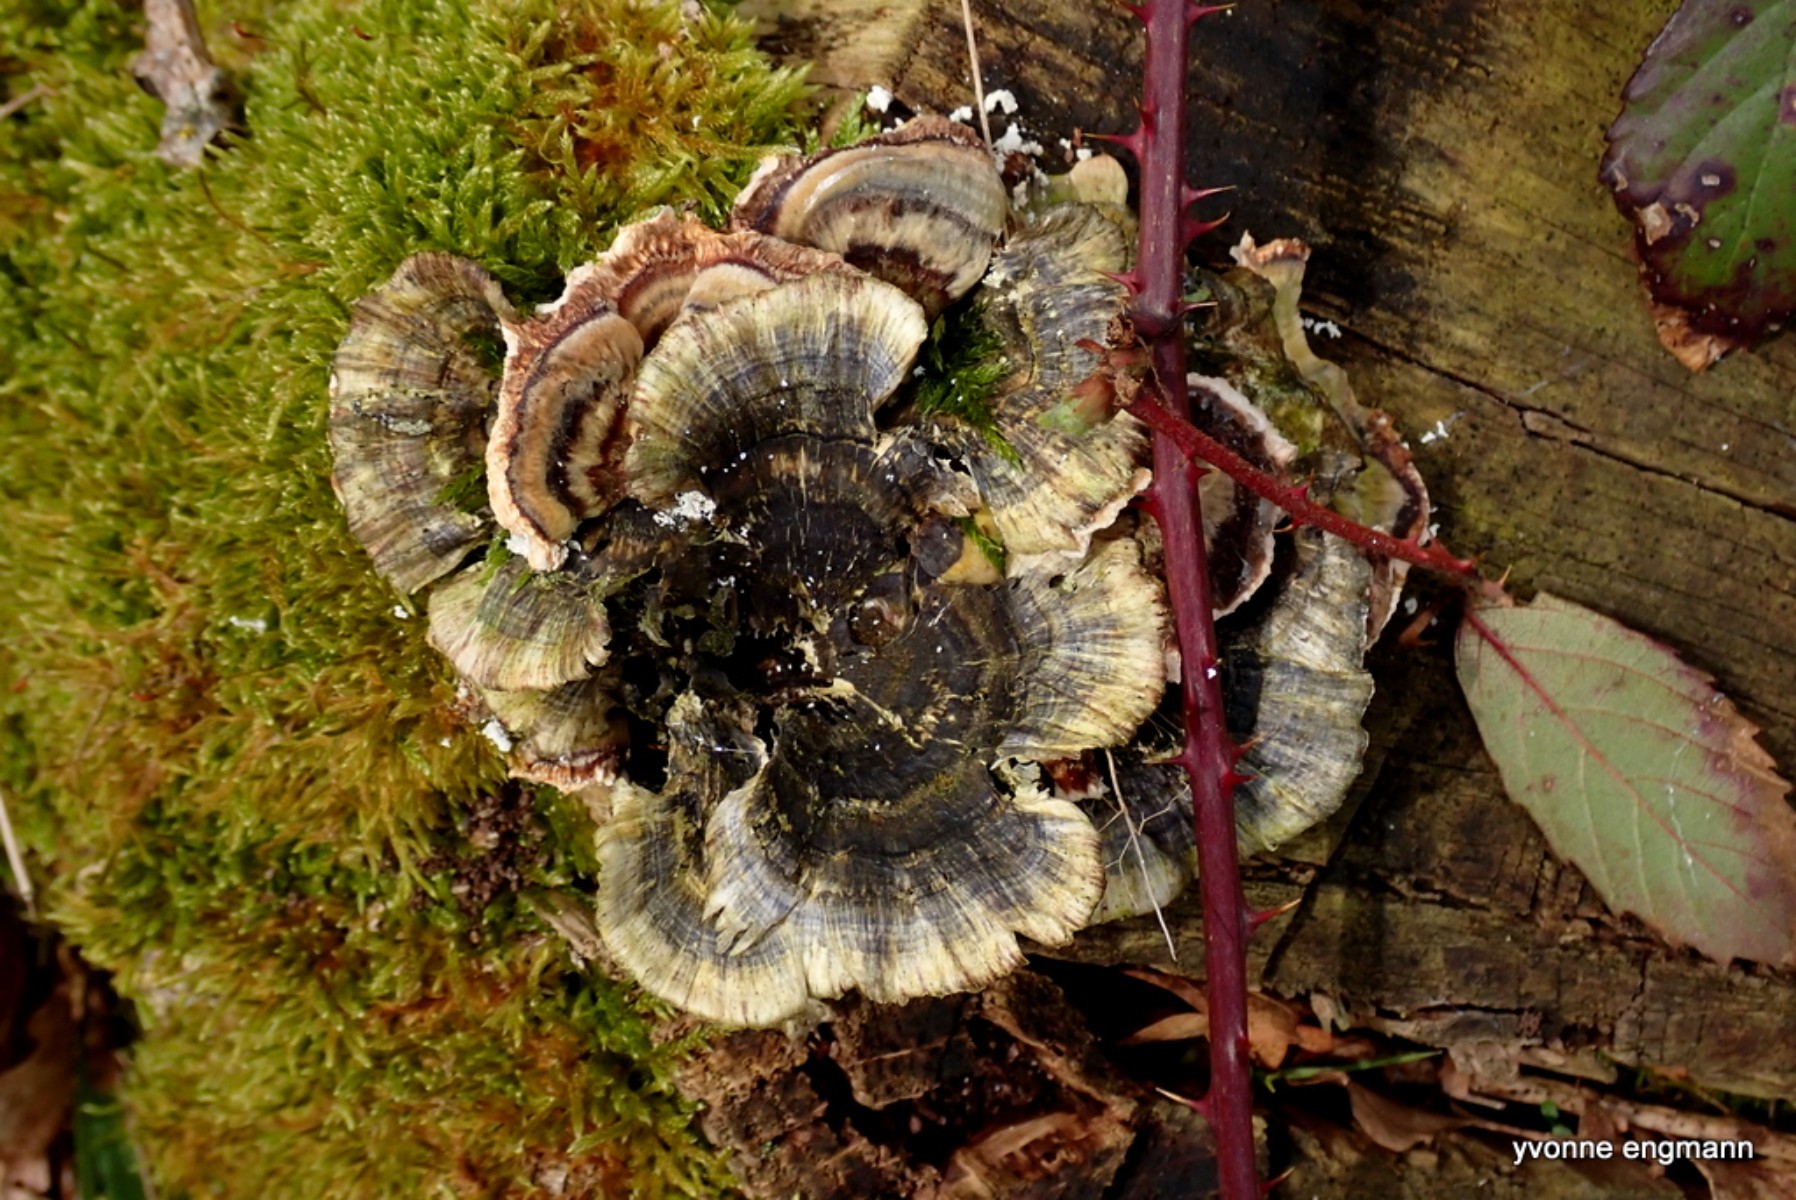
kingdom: Fungi
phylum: Basidiomycota
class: Agaricomycetes
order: Polyporales
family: Polyporaceae
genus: Trametes
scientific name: Trametes versicolor
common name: broget læderporesvamp
